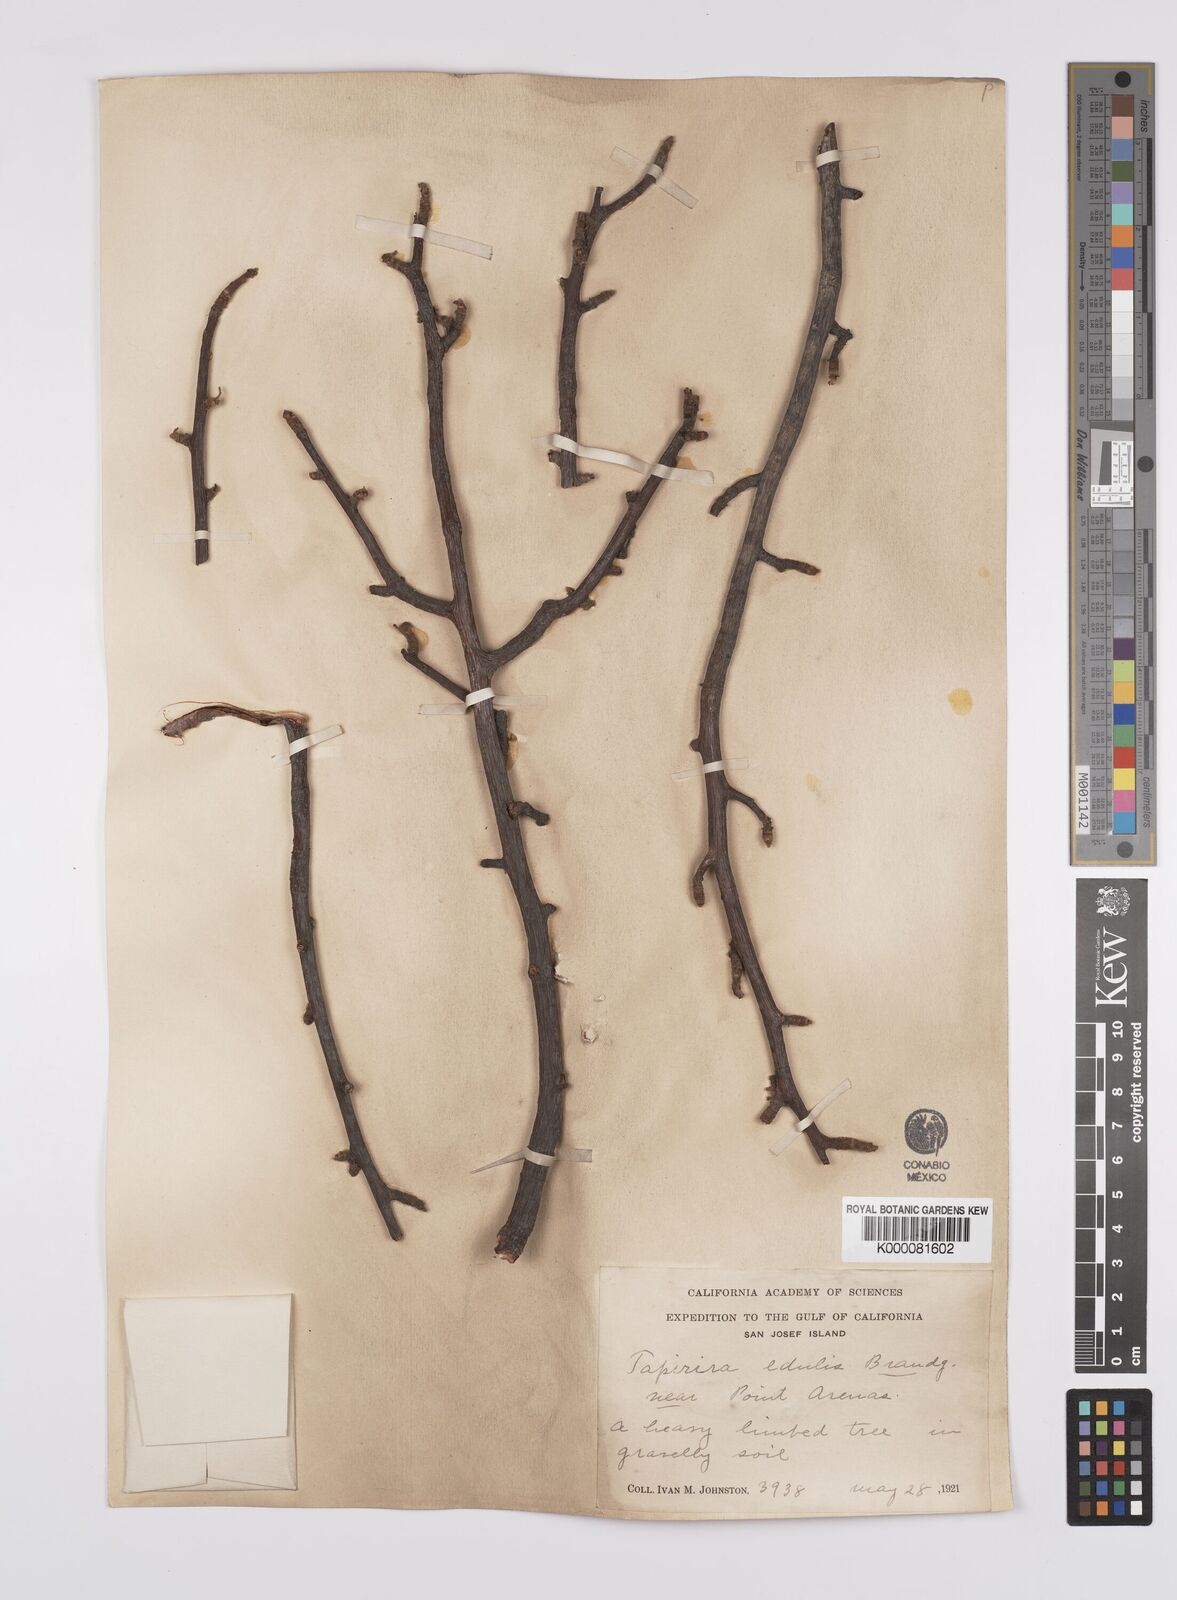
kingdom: Plantae
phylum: Tracheophyta
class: Magnoliopsida
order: Sapindales
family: Anacardiaceae
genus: Cyrtocarpa
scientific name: Cyrtocarpa edulis
